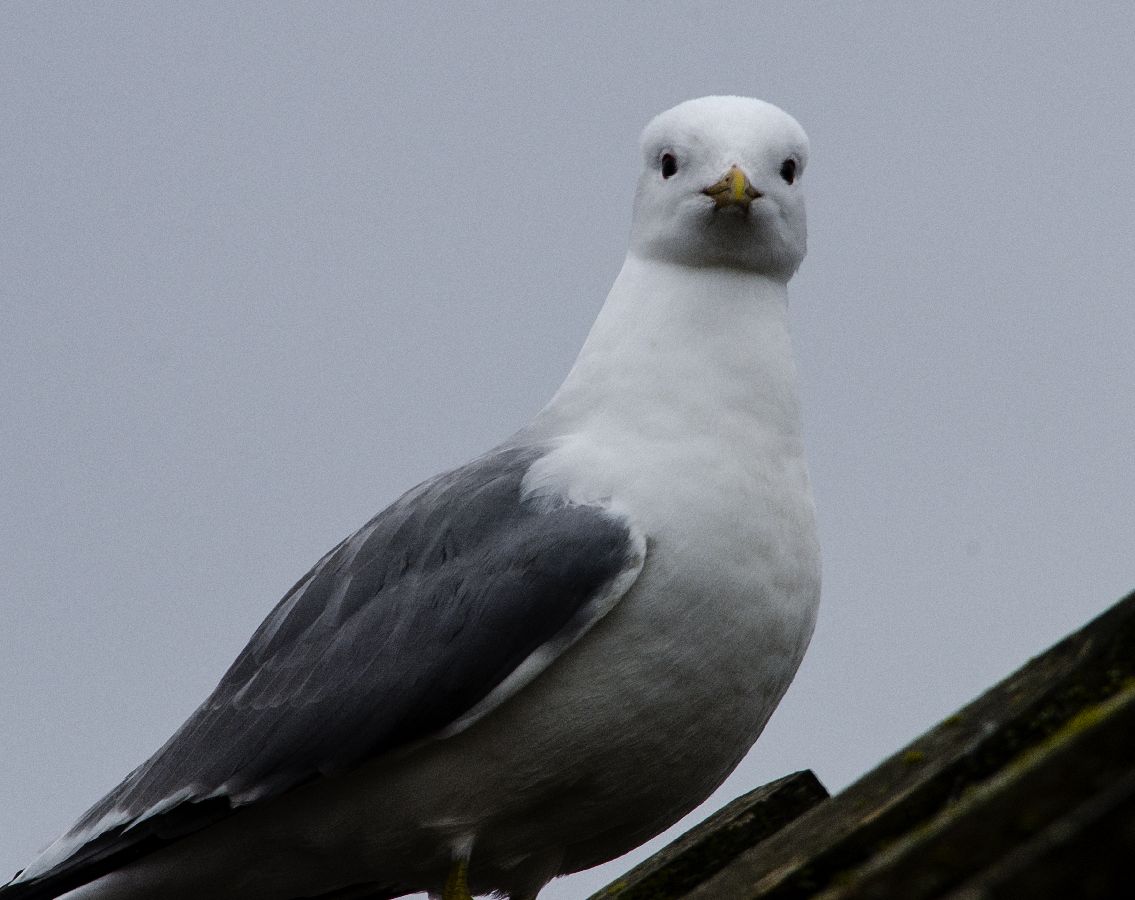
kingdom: Animalia
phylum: Chordata
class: Aves
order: Charadriiformes
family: Laridae
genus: Larus
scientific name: Larus canus
